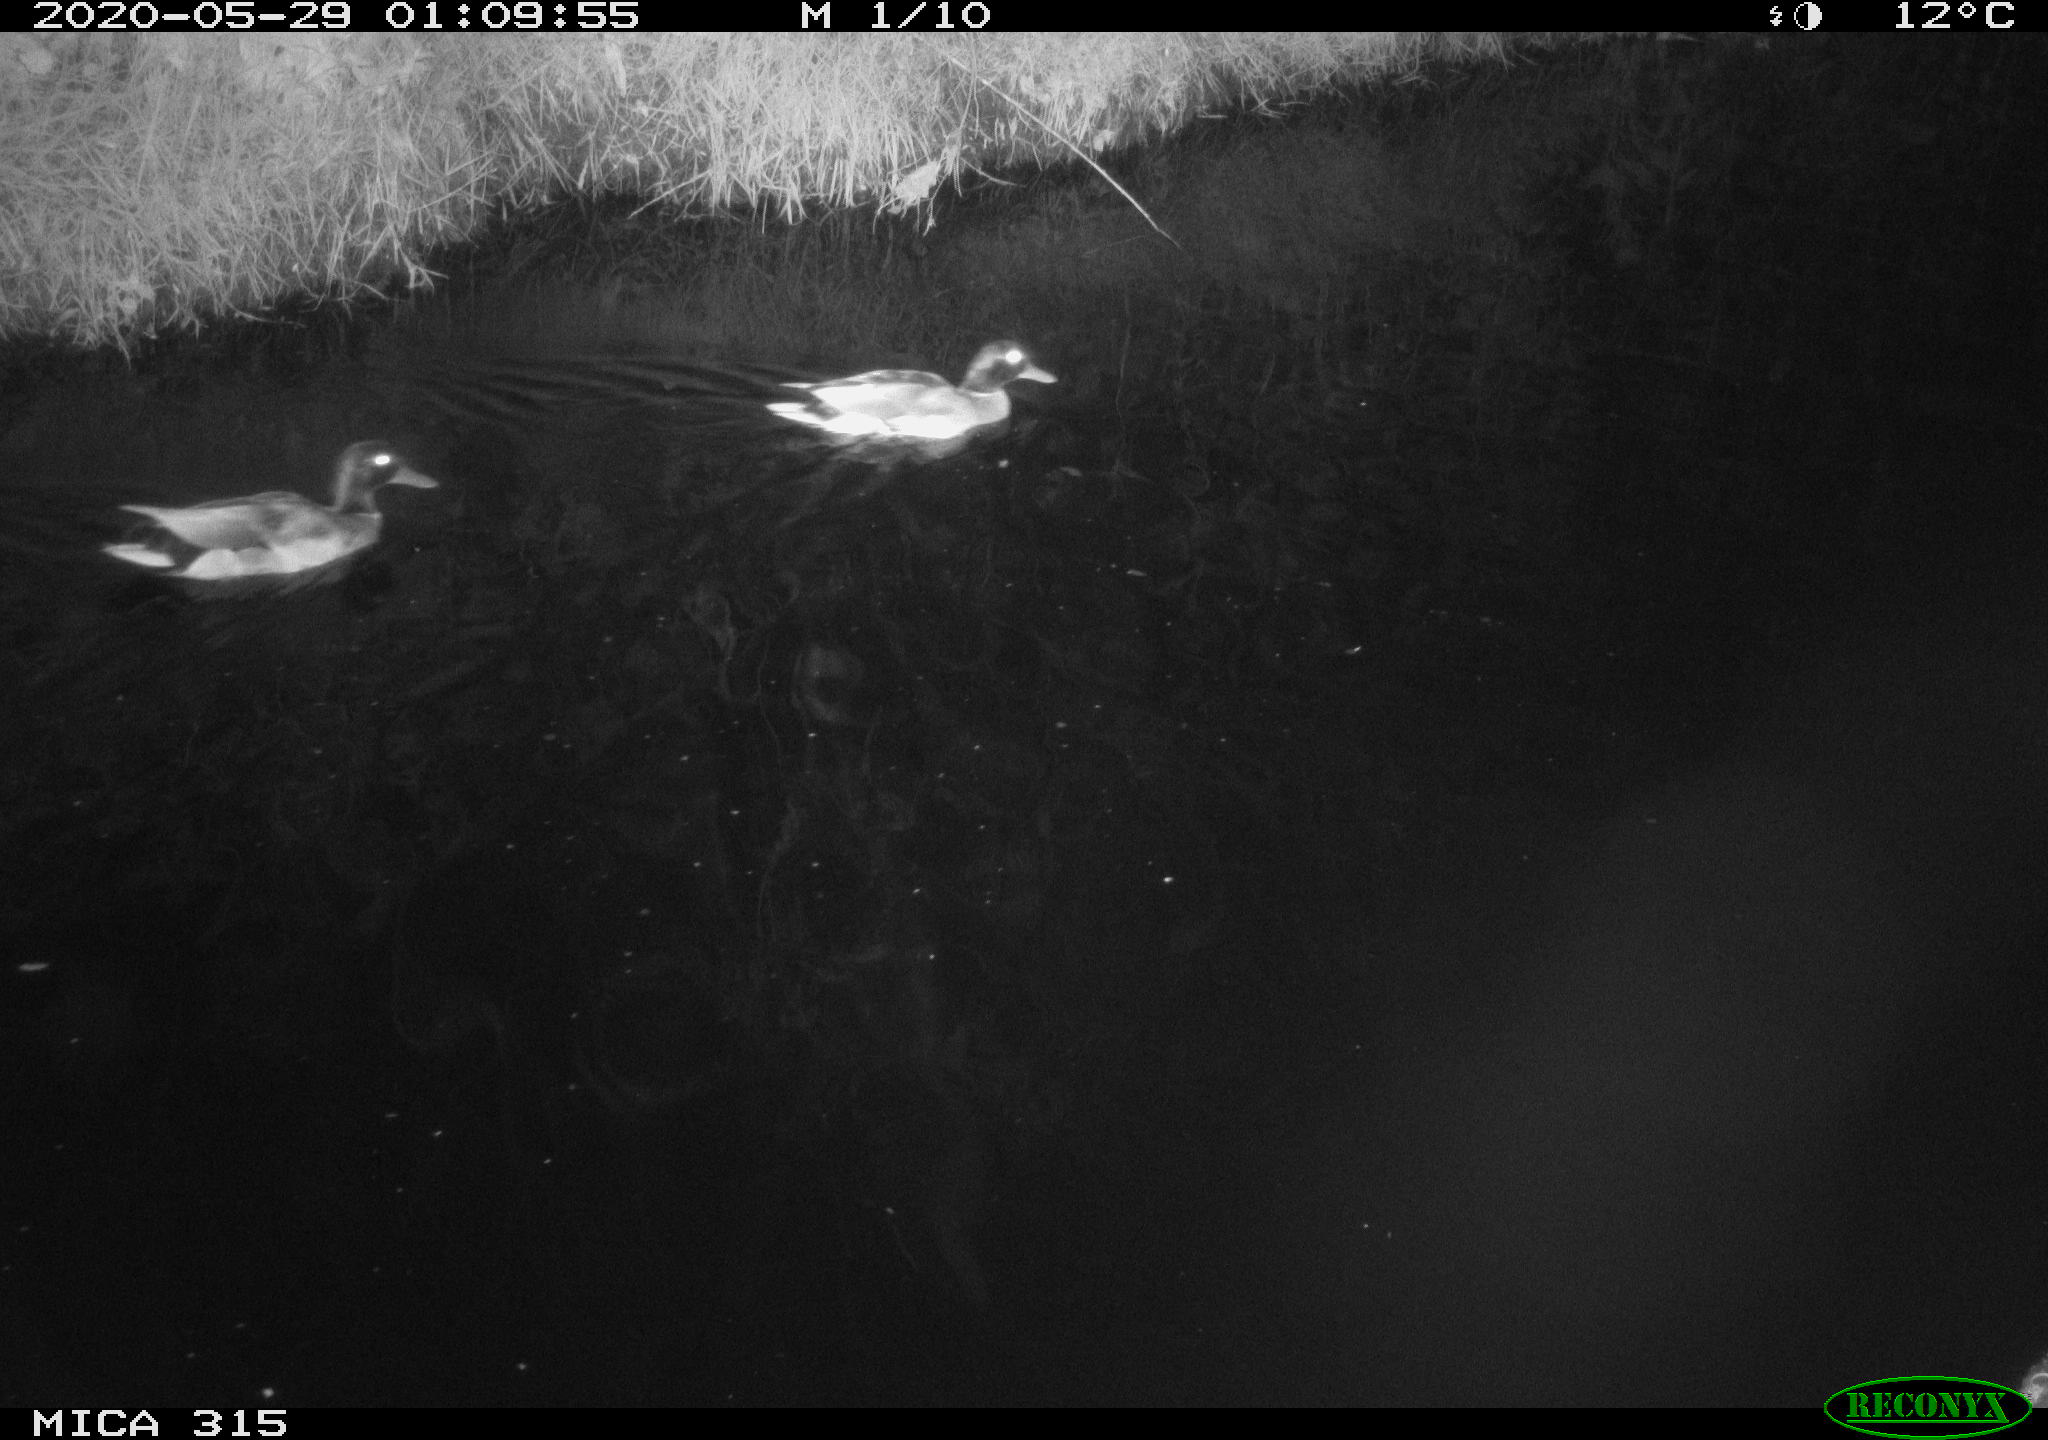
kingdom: Animalia
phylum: Chordata
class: Aves
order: Anseriformes
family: Anatidae
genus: Anas
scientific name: Anas platyrhynchos
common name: Mallard
